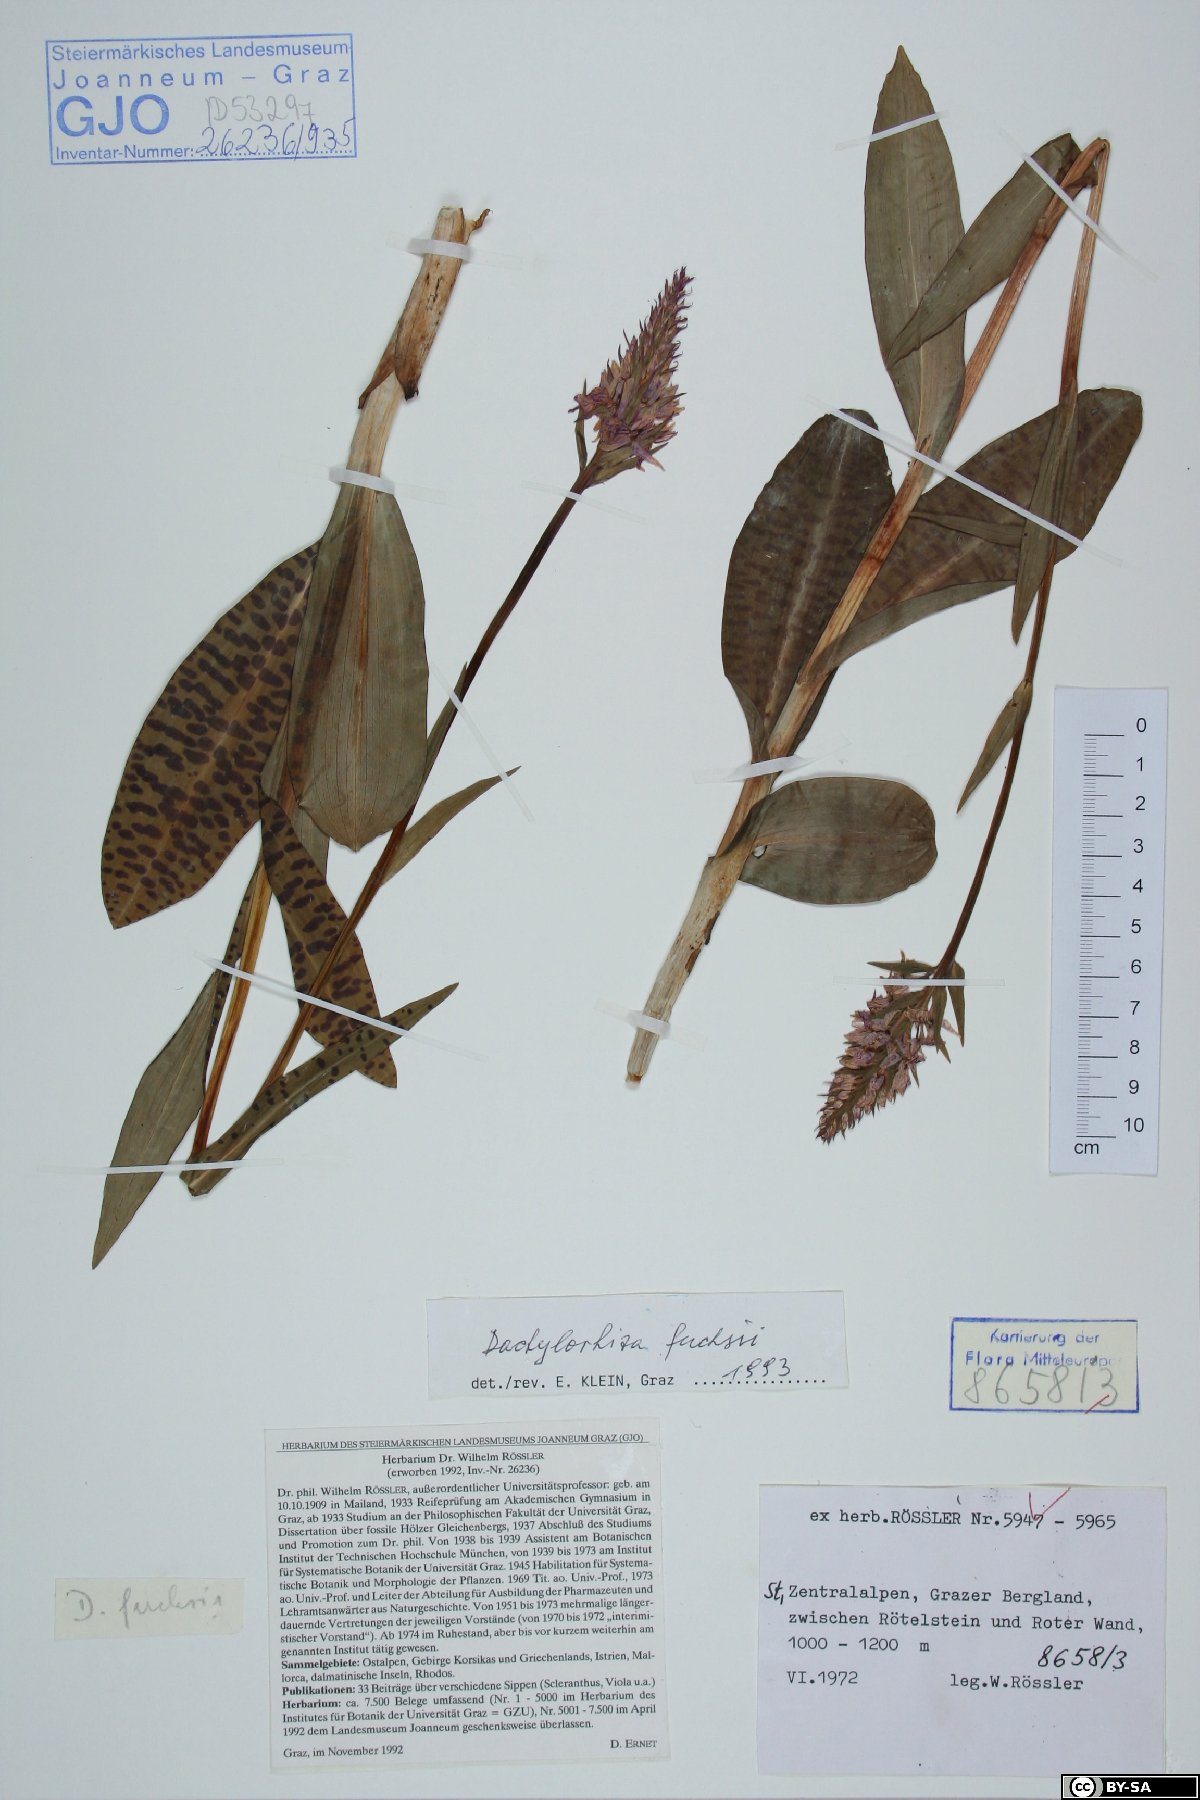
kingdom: Plantae
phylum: Tracheophyta
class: Liliopsida
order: Asparagales
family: Orchidaceae
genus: Dactylorhiza
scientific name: Dactylorhiza maculata
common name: Heath spotted-orchid
